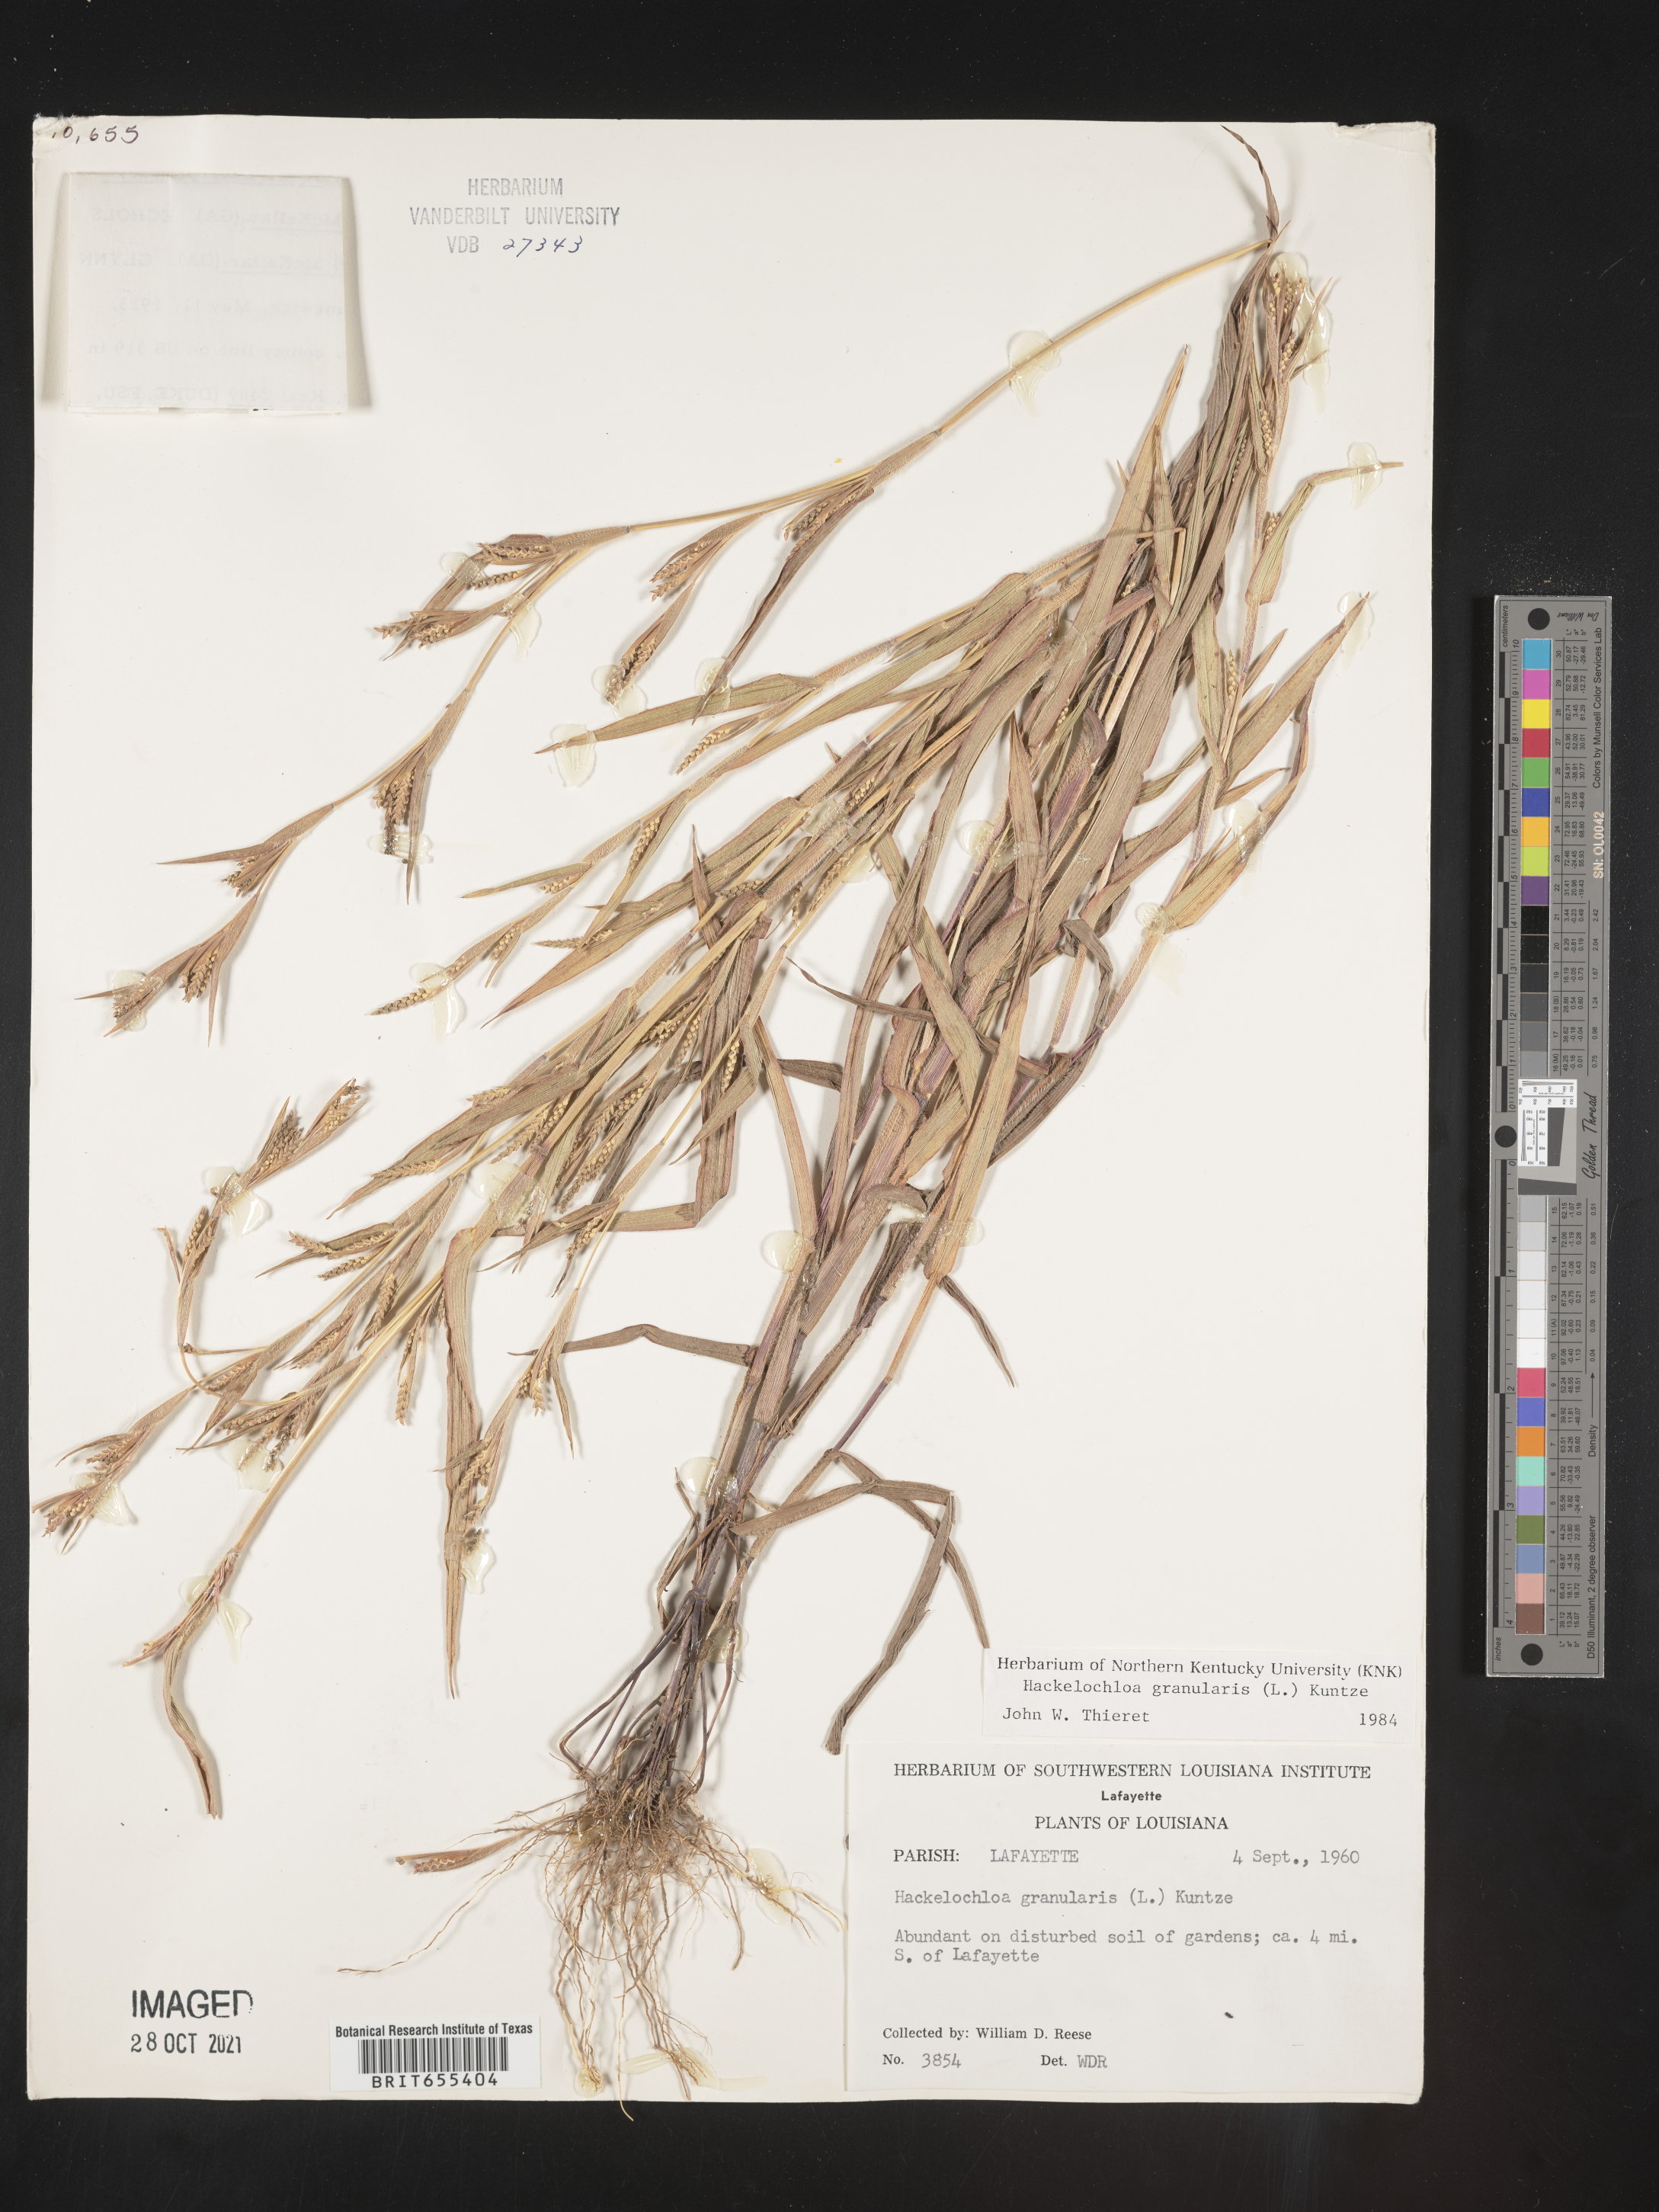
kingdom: Plantae
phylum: Tracheophyta
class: Liliopsida
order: Poales
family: Poaceae
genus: Hackelochloa
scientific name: Hackelochloa
